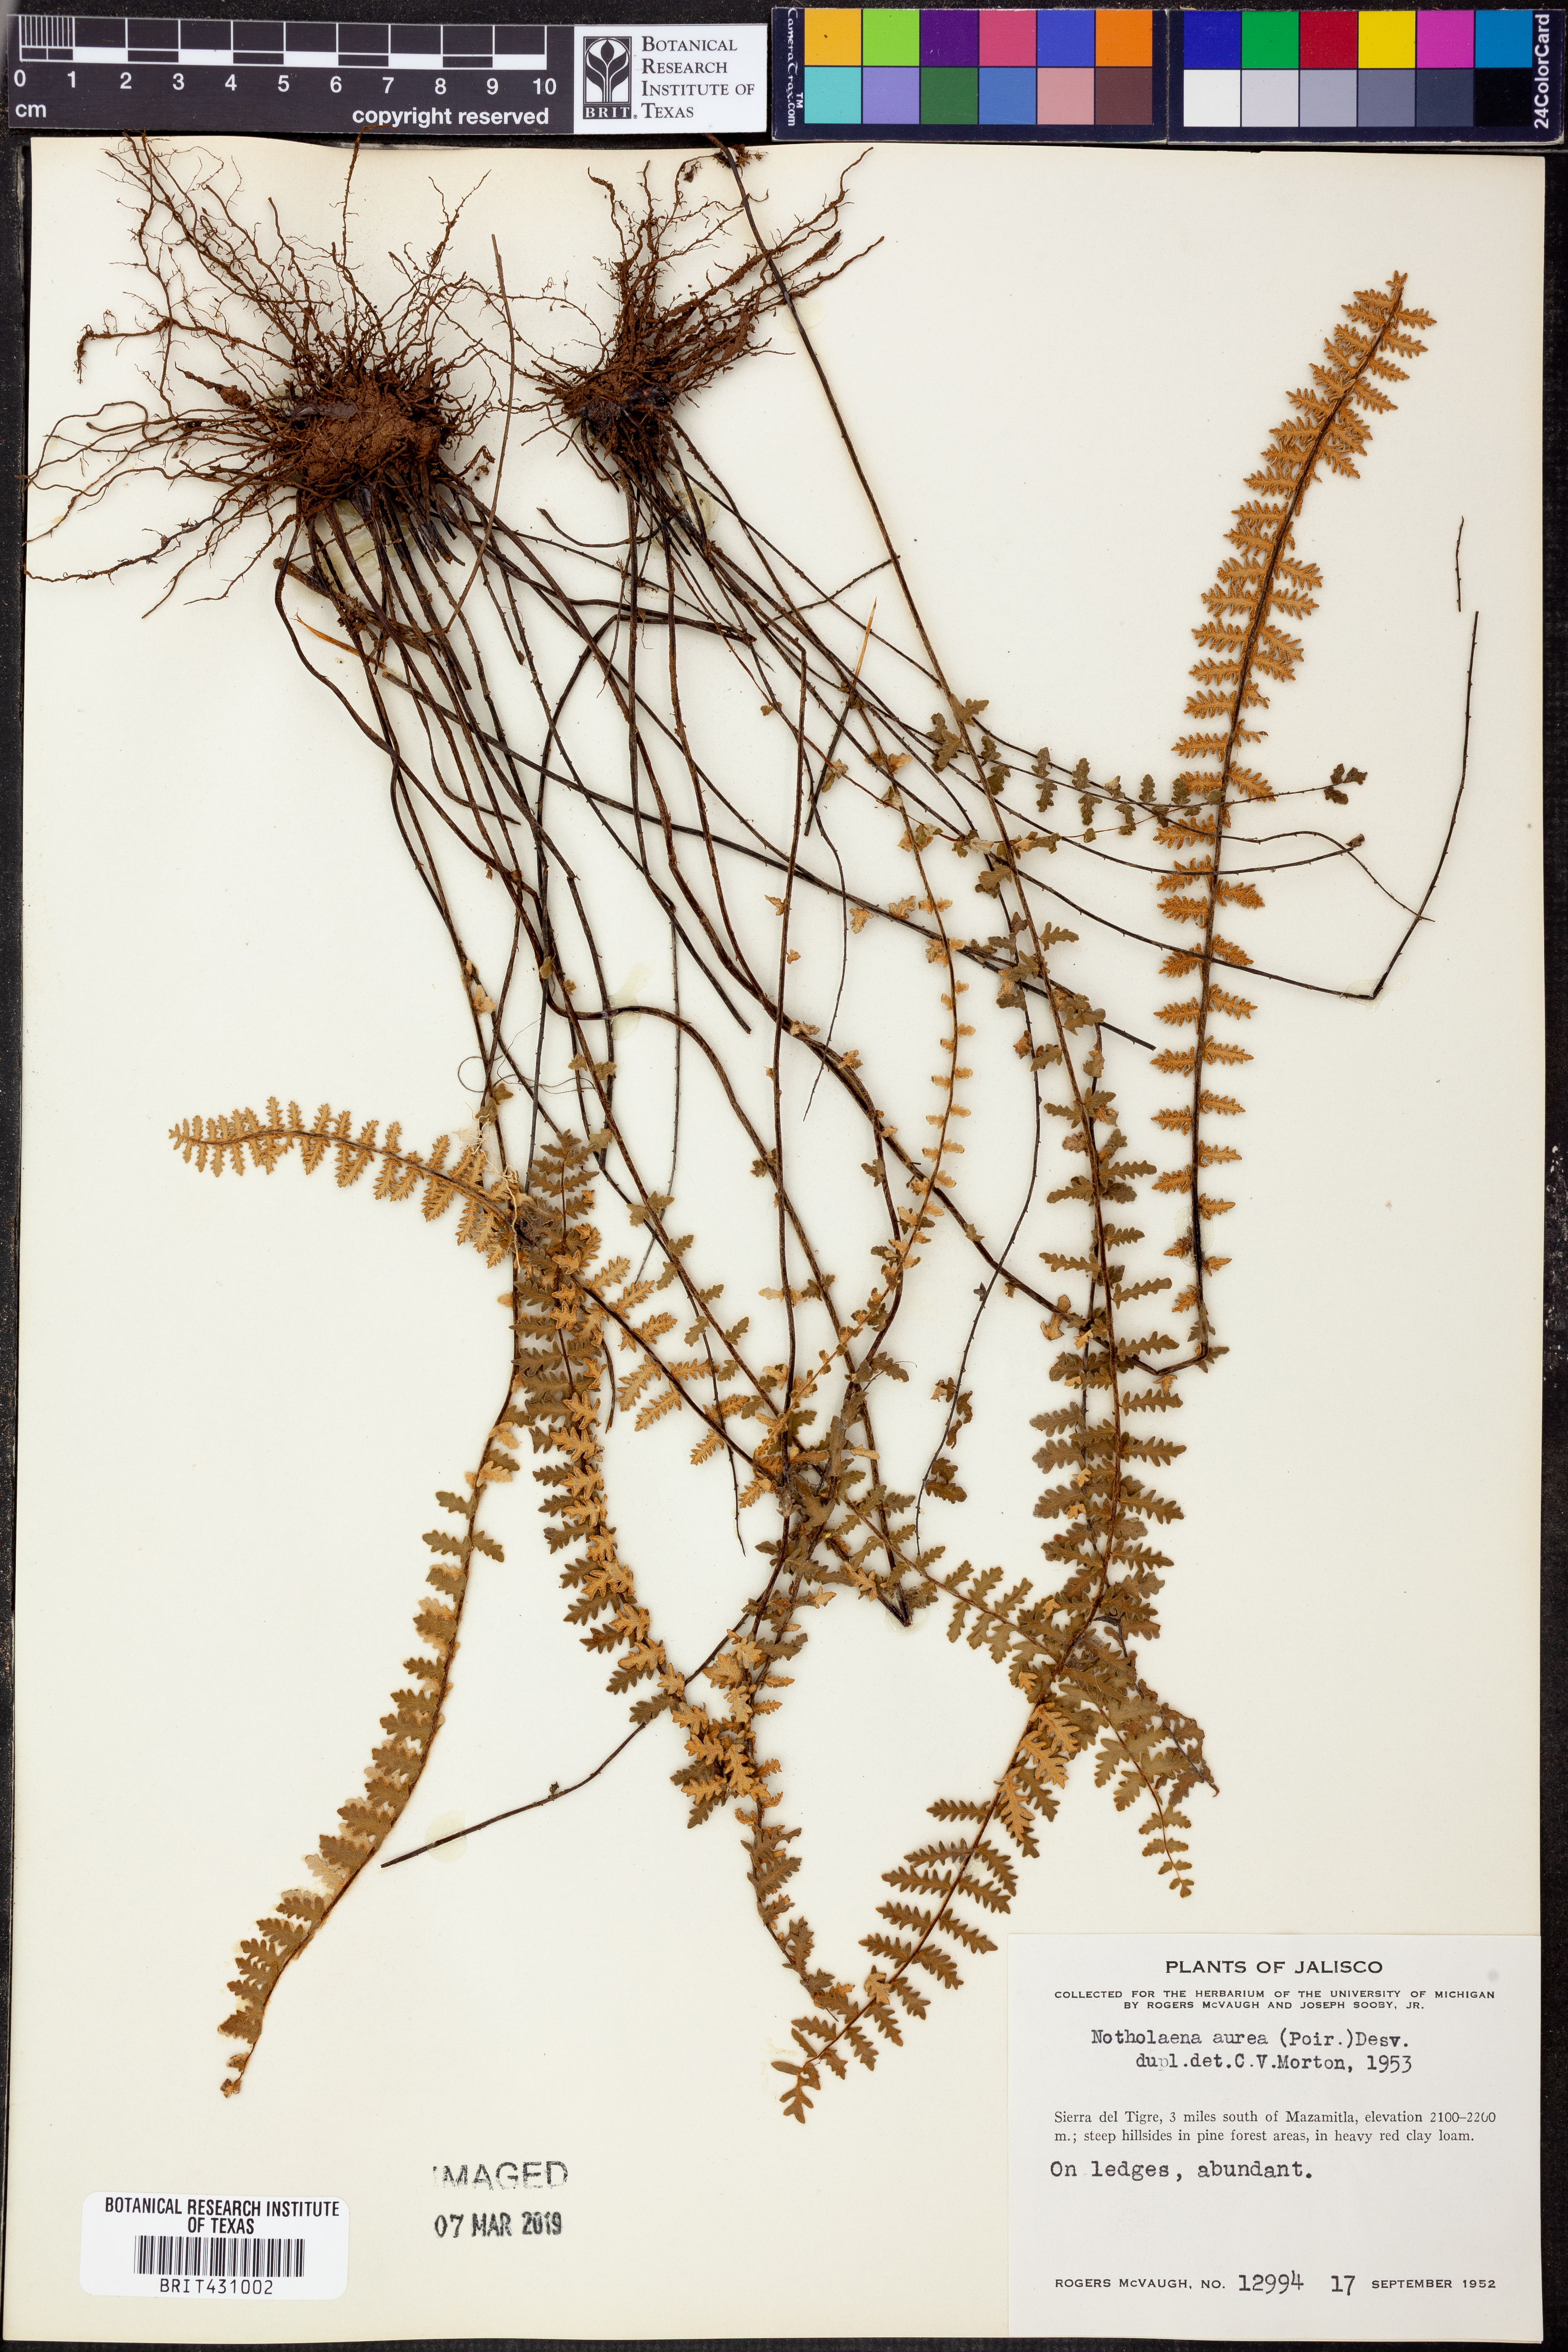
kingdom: Plantae
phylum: Tracheophyta
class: Polypodiopsida
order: Polypodiales
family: Pteridaceae
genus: Myriopteris
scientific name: Myriopteris aurea
